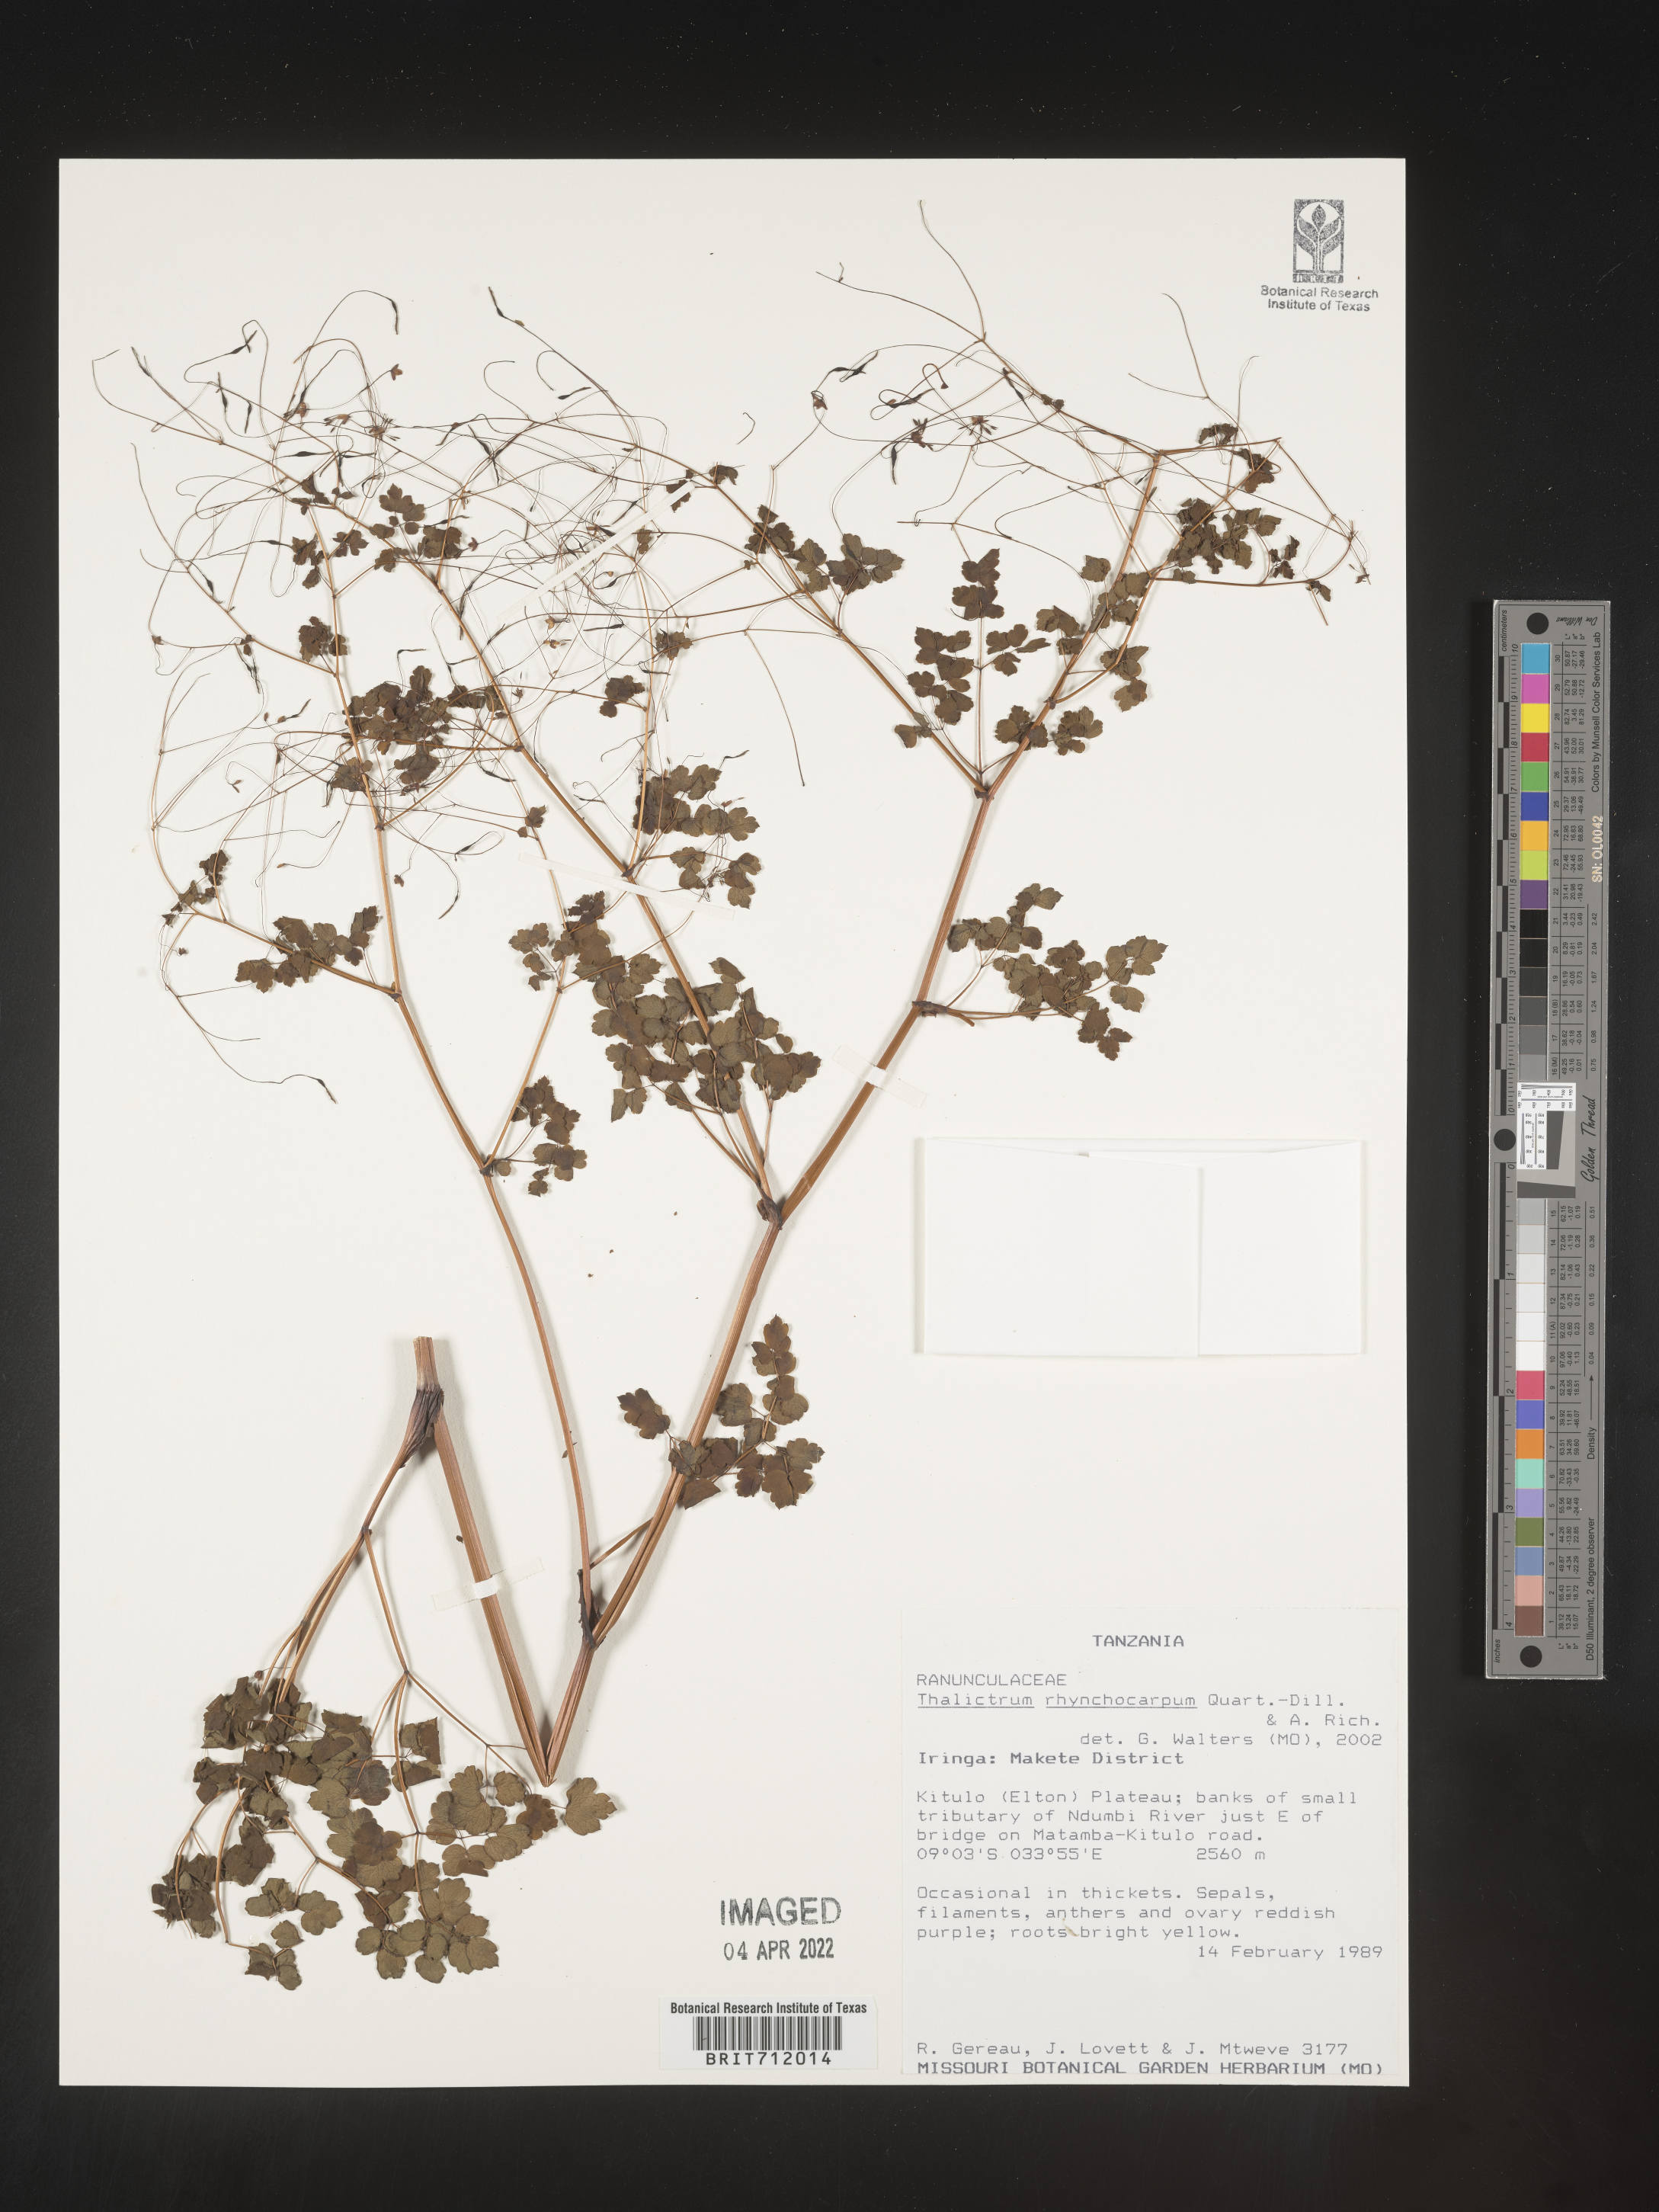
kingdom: Plantae
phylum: Tracheophyta
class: Magnoliopsida
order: Ranunculales
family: Ranunculaceae
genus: Thalictrum
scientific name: Thalictrum
